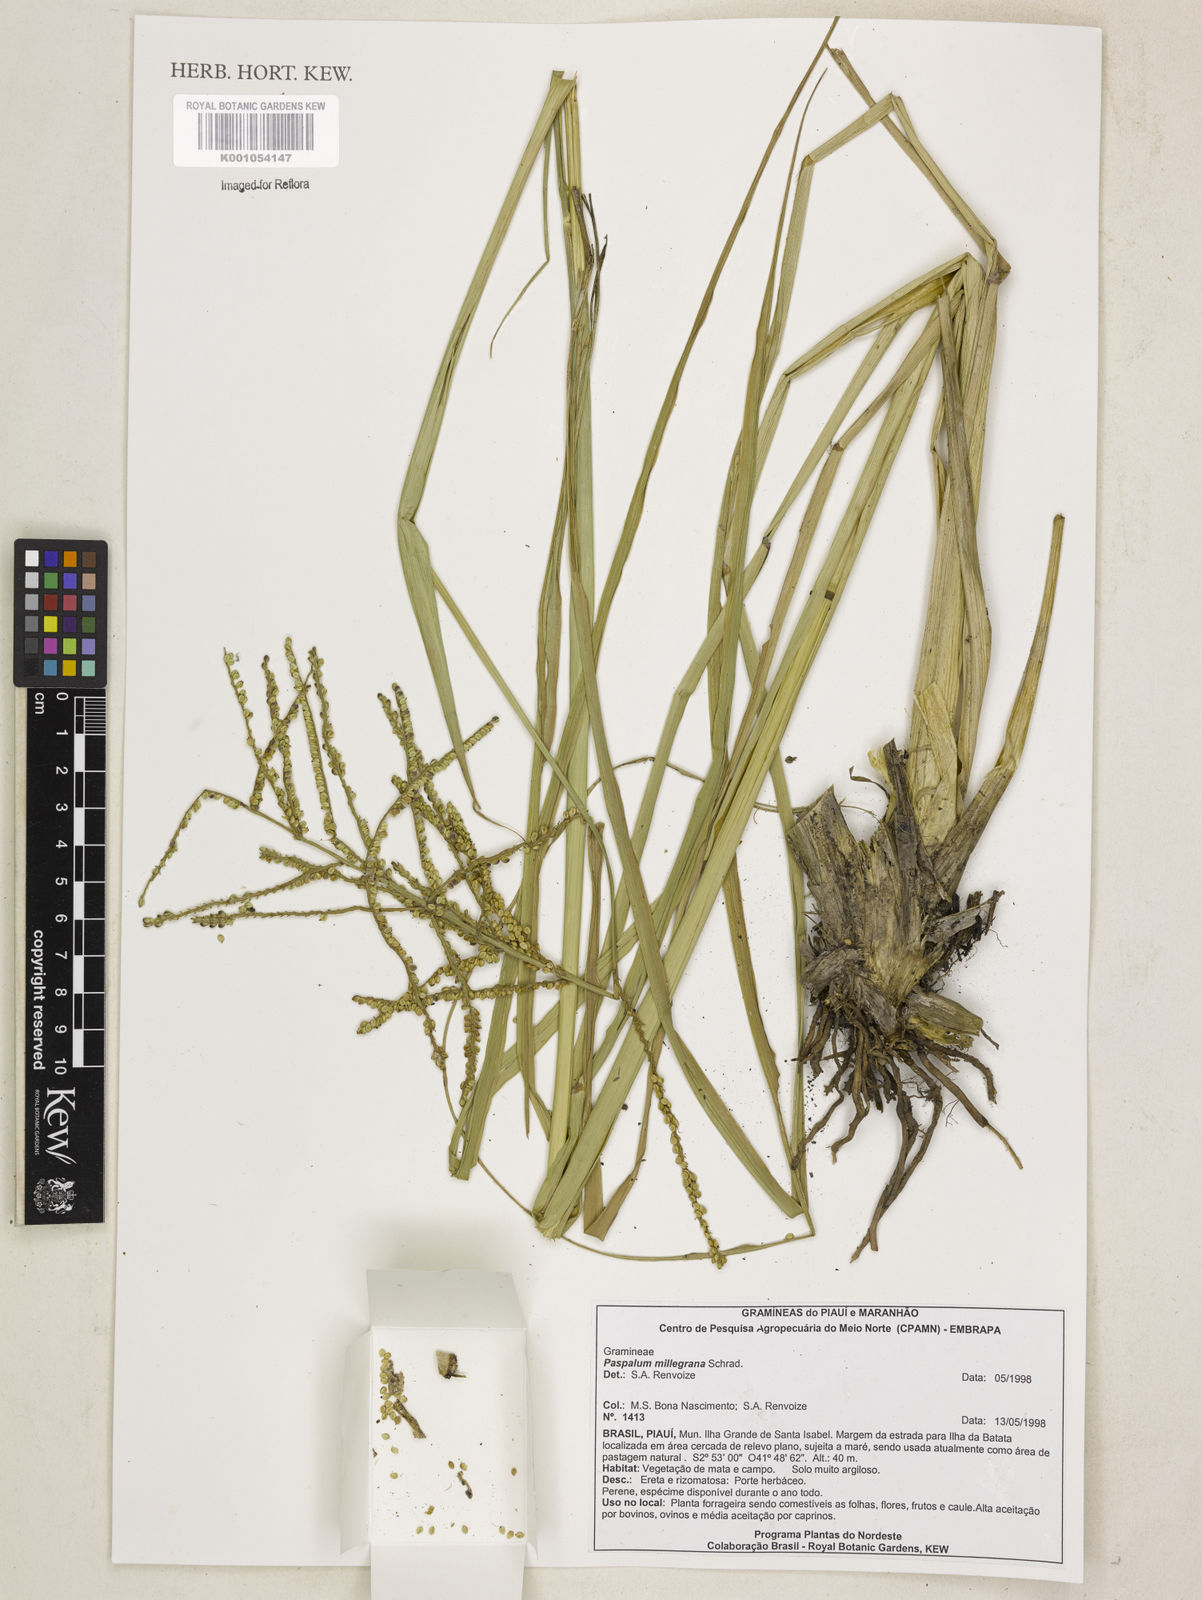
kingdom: Plantae
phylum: Tracheophyta
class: Liliopsida
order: Poales
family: Poaceae
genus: Paspalum
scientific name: Paspalum
